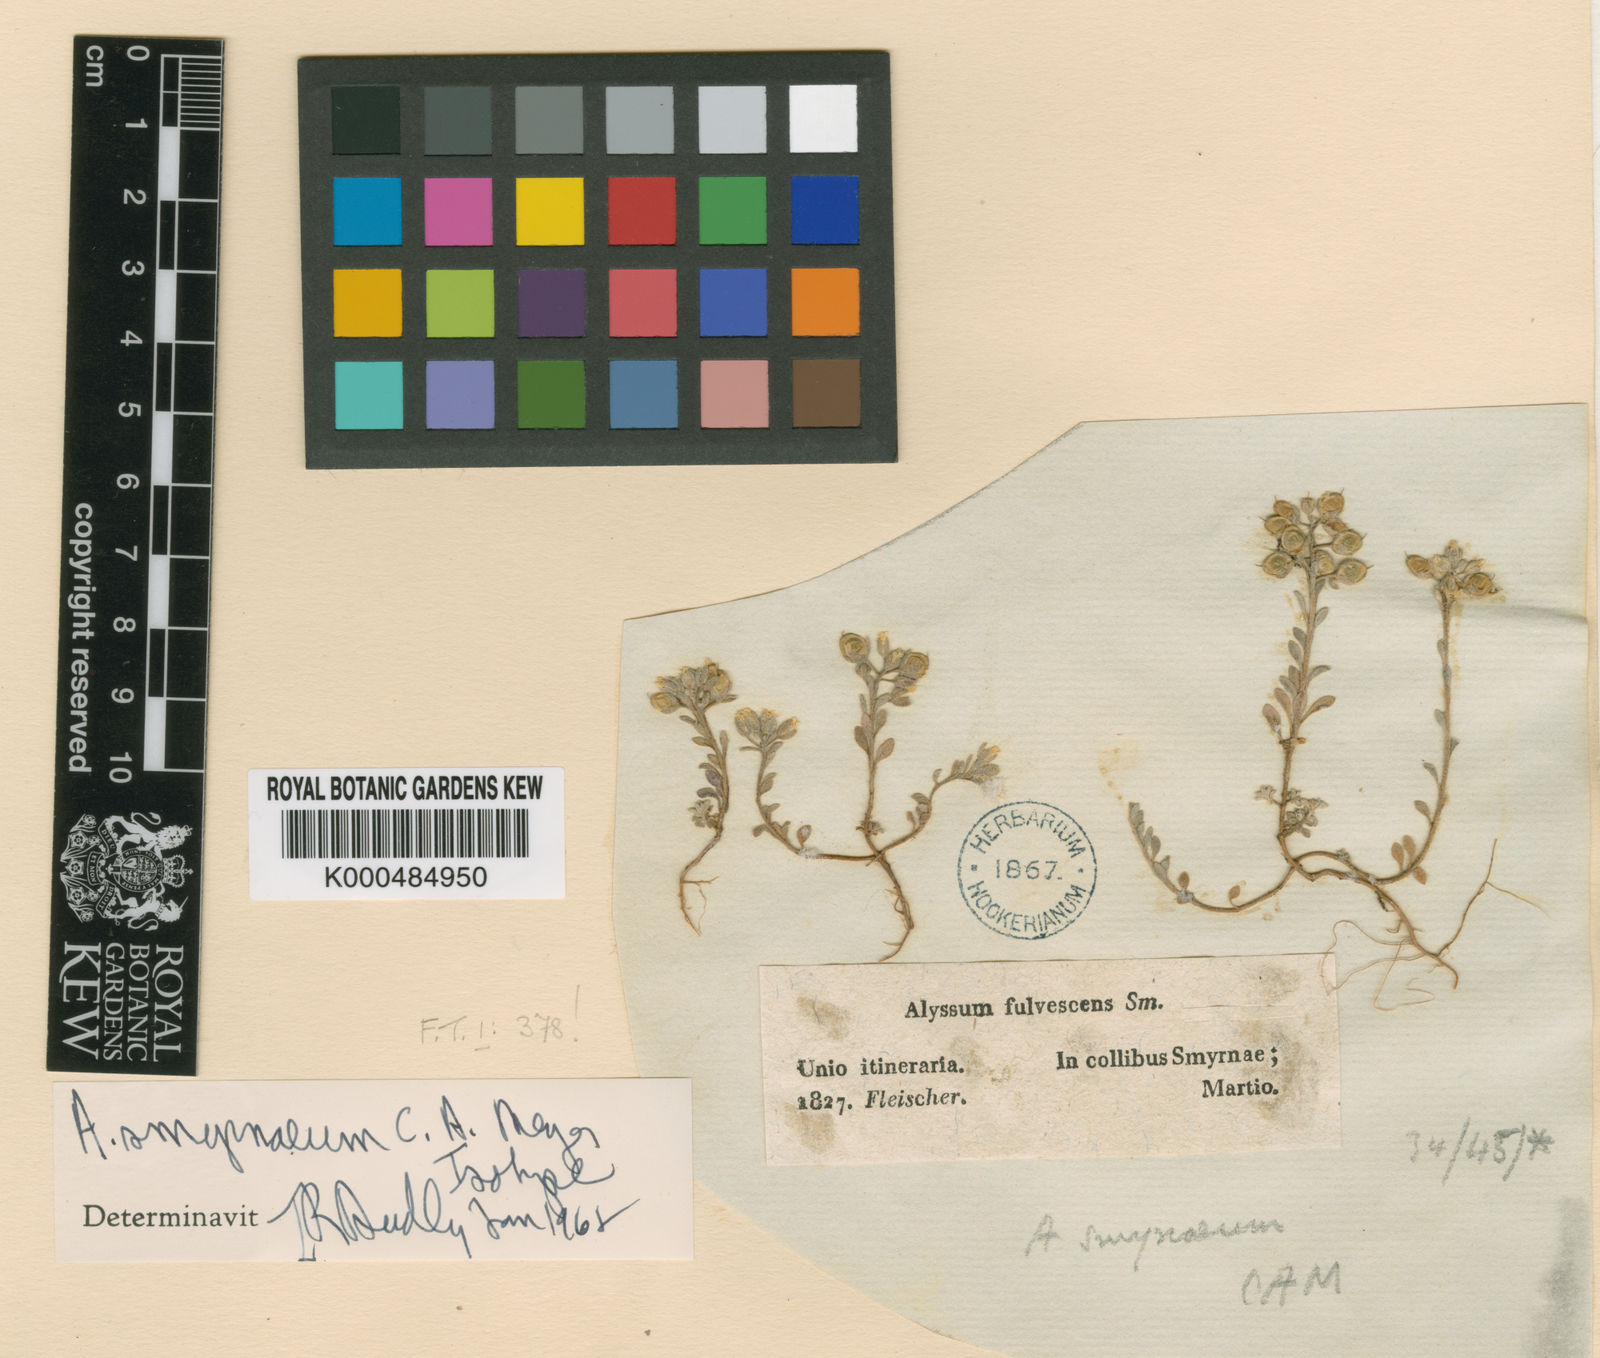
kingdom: Plantae
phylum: Tracheophyta
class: Magnoliopsida
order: Brassicales
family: Brassicaceae
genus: Alyssum
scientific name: Alyssum smyrnaeum
